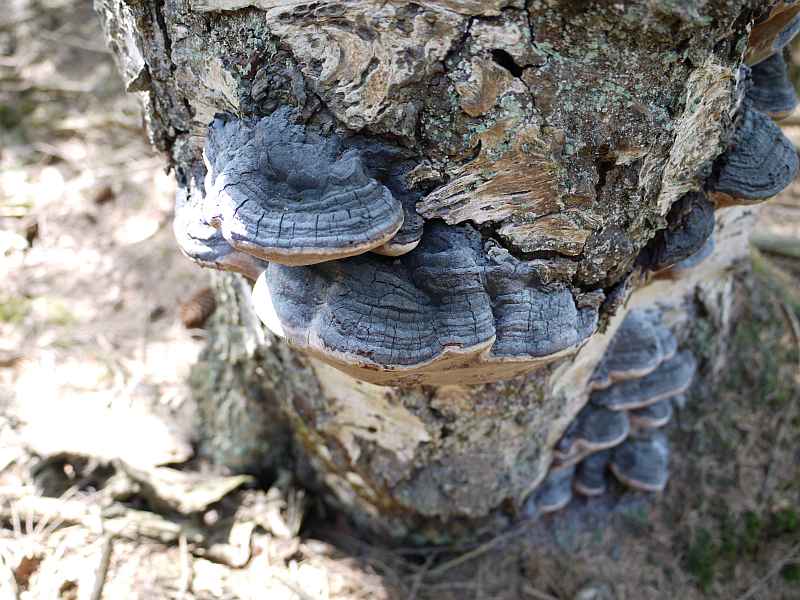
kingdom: Fungi
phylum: Basidiomycota
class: Agaricomycetes
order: Hymenochaetales
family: Hymenochaetaceae
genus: Phellinus
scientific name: Phellinus lundellii
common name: birke-ildporesvamp
